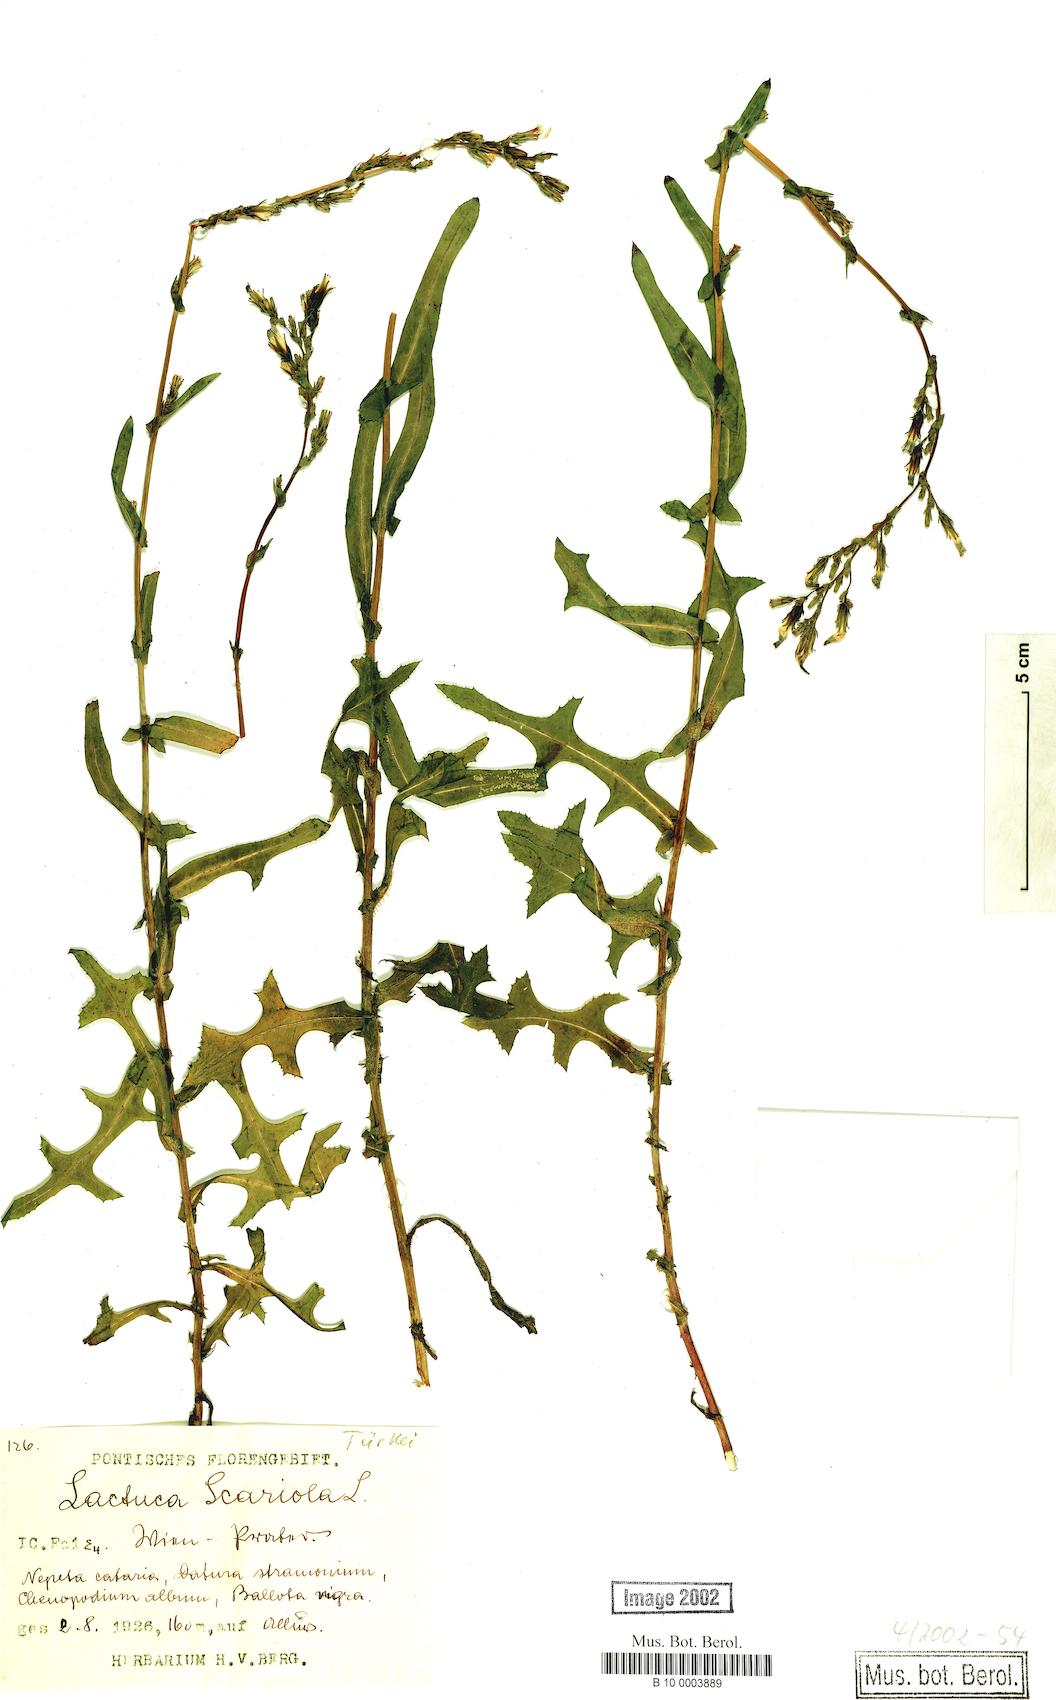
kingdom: Plantae
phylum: Tracheophyta
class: Magnoliopsida
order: Asterales
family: Asteraceae
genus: Lactuca
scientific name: Lactuca serriola
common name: Prickly lettuce
